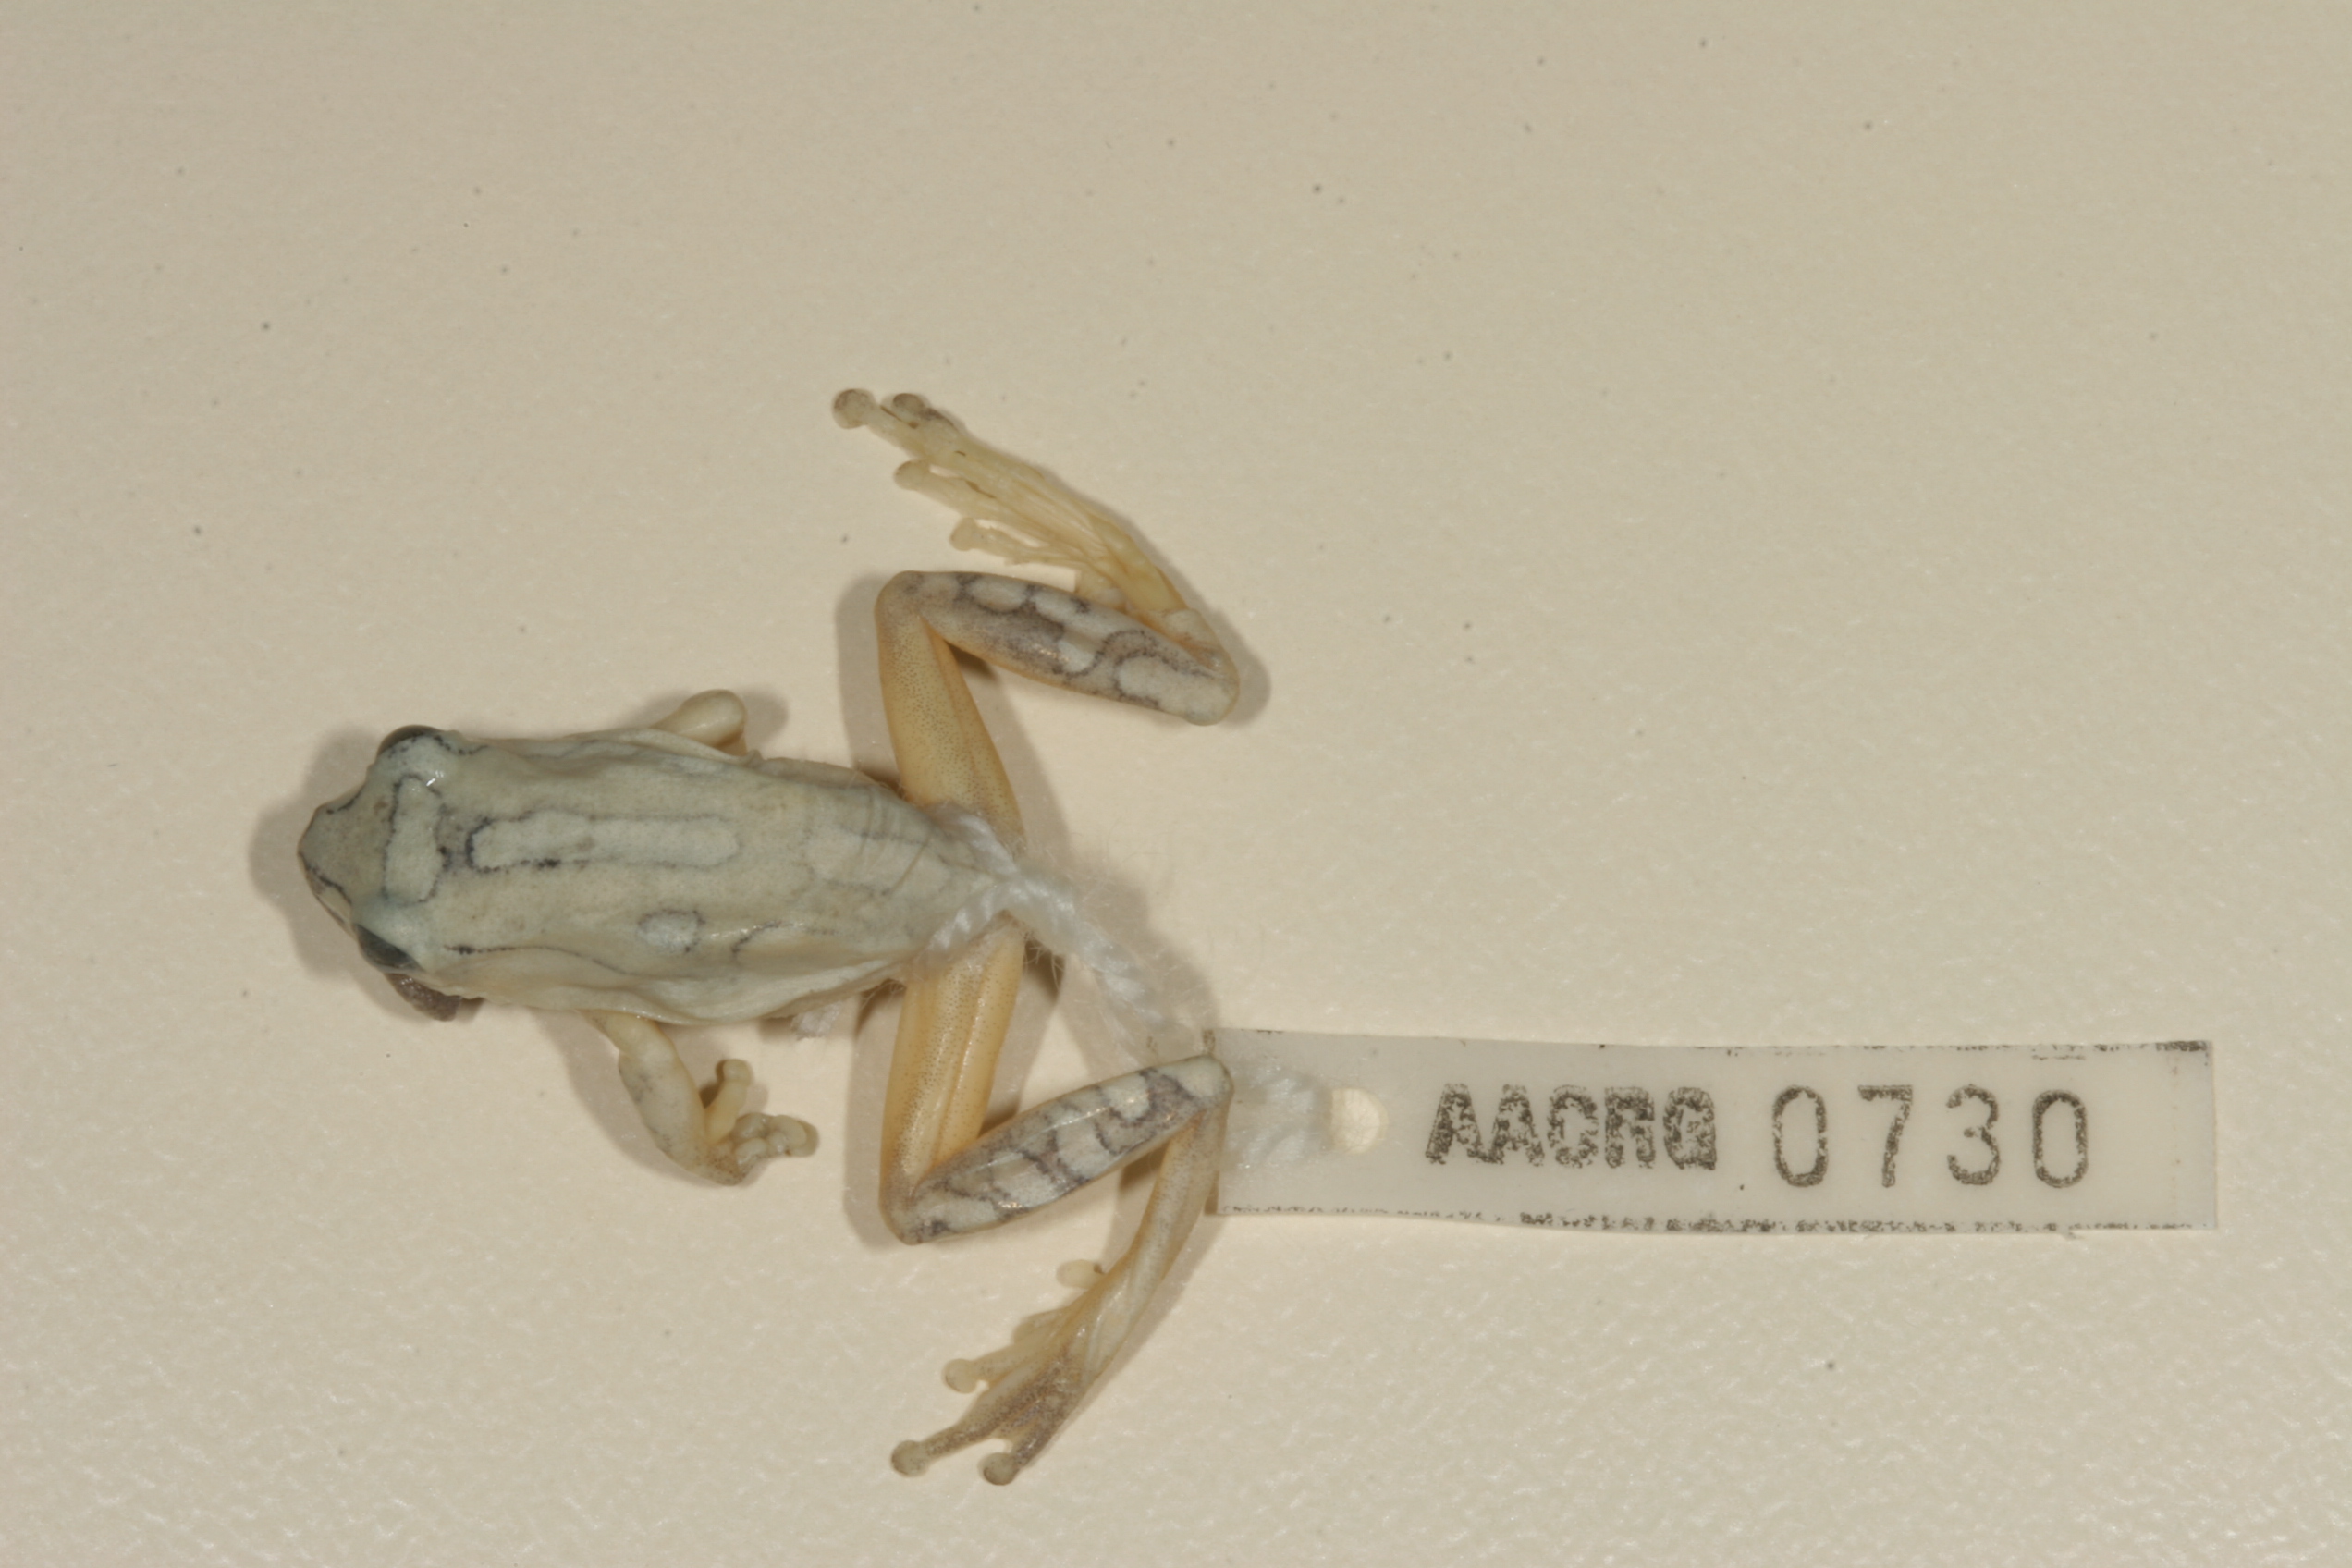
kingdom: Animalia
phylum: Chordata
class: Amphibia
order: Anura
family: Hyperoliidae
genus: Hyperolius
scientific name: Hyperolius marmoratus
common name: Painted reed frog
